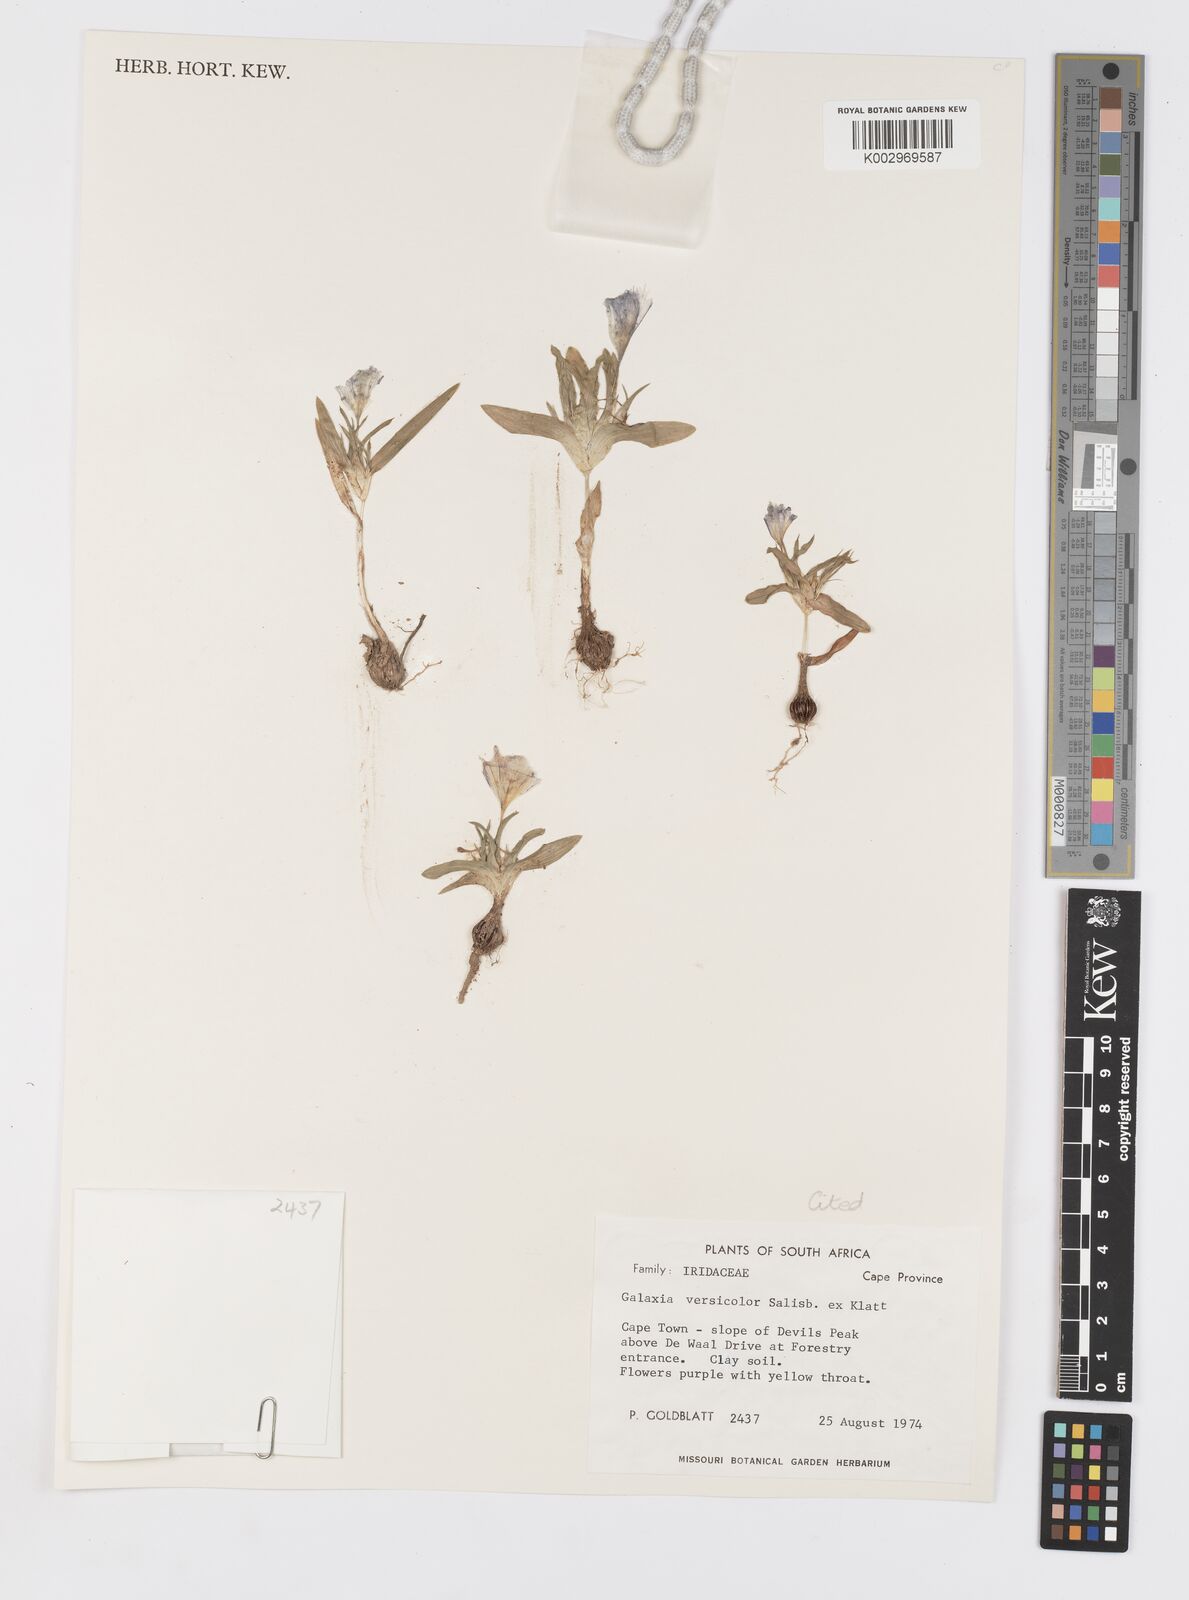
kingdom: Plantae
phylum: Tracheophyta
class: Liliopsida
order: Asparagales
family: Iridaceae
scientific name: Iridaceae
